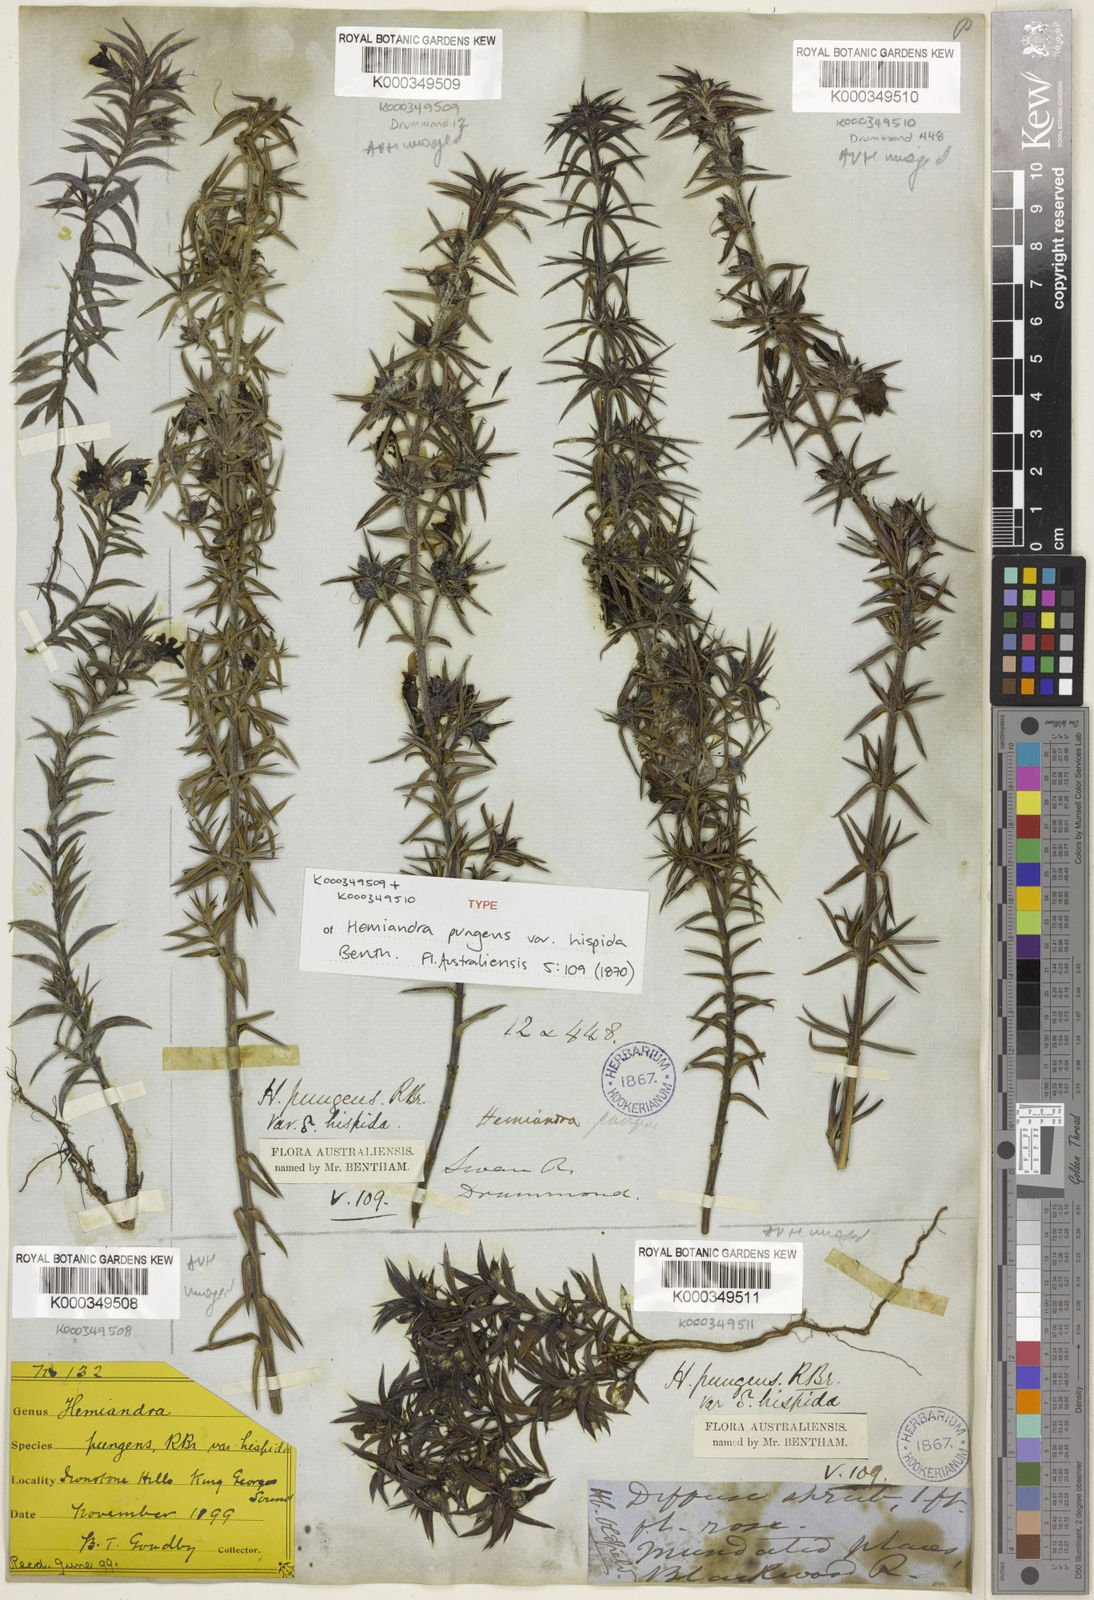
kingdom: Plantae
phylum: Tracheophyta
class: Magnoliopsida
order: Lamiales
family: Lamiaceae
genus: Hemiandra
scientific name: Hemiandra pungens
